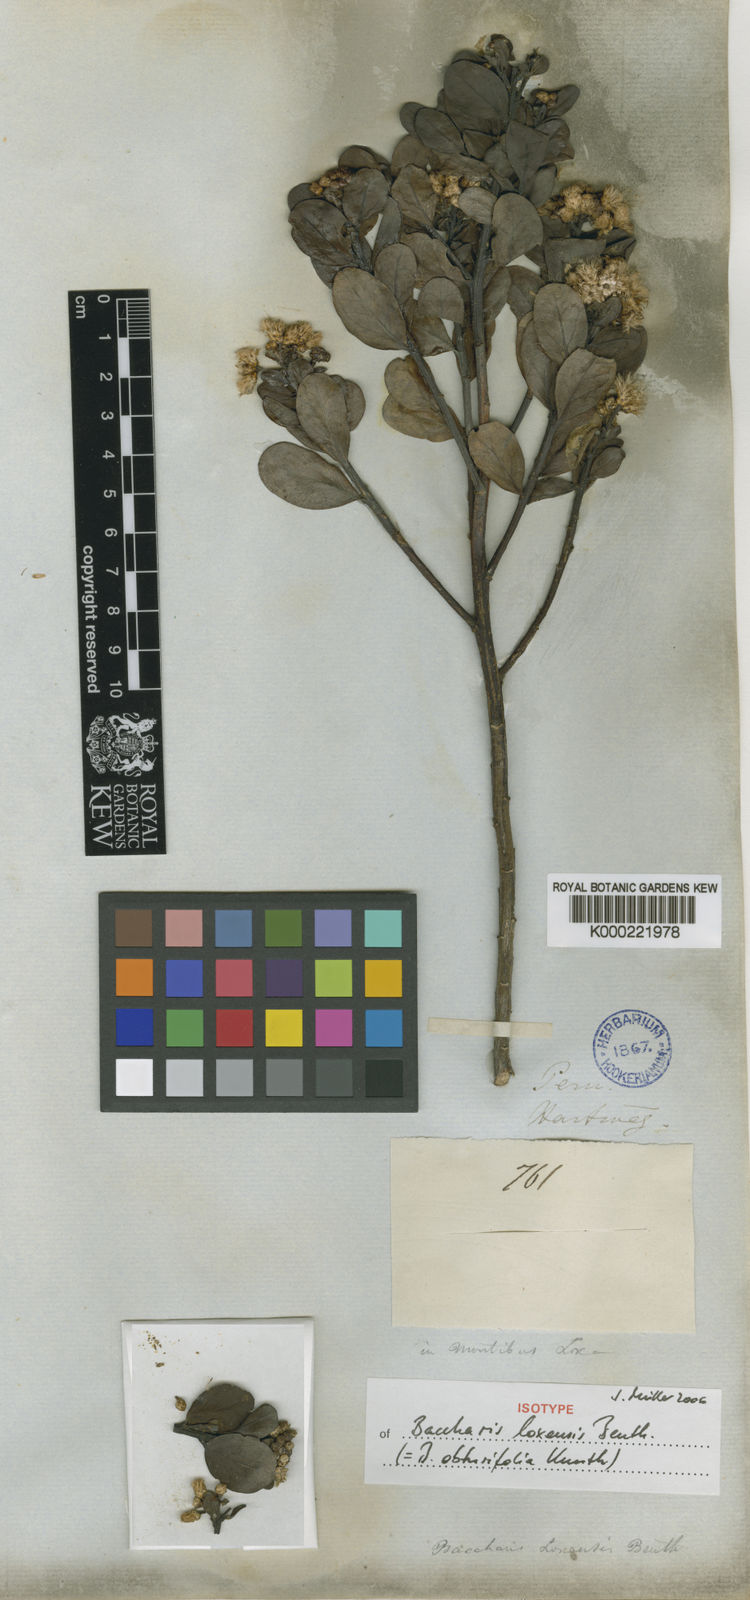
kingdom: Plantae
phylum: Tracheophyta
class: Magnoliopsida
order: Asterales
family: Asteraceae
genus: Baccharis
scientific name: Baccharis obtusifolia
